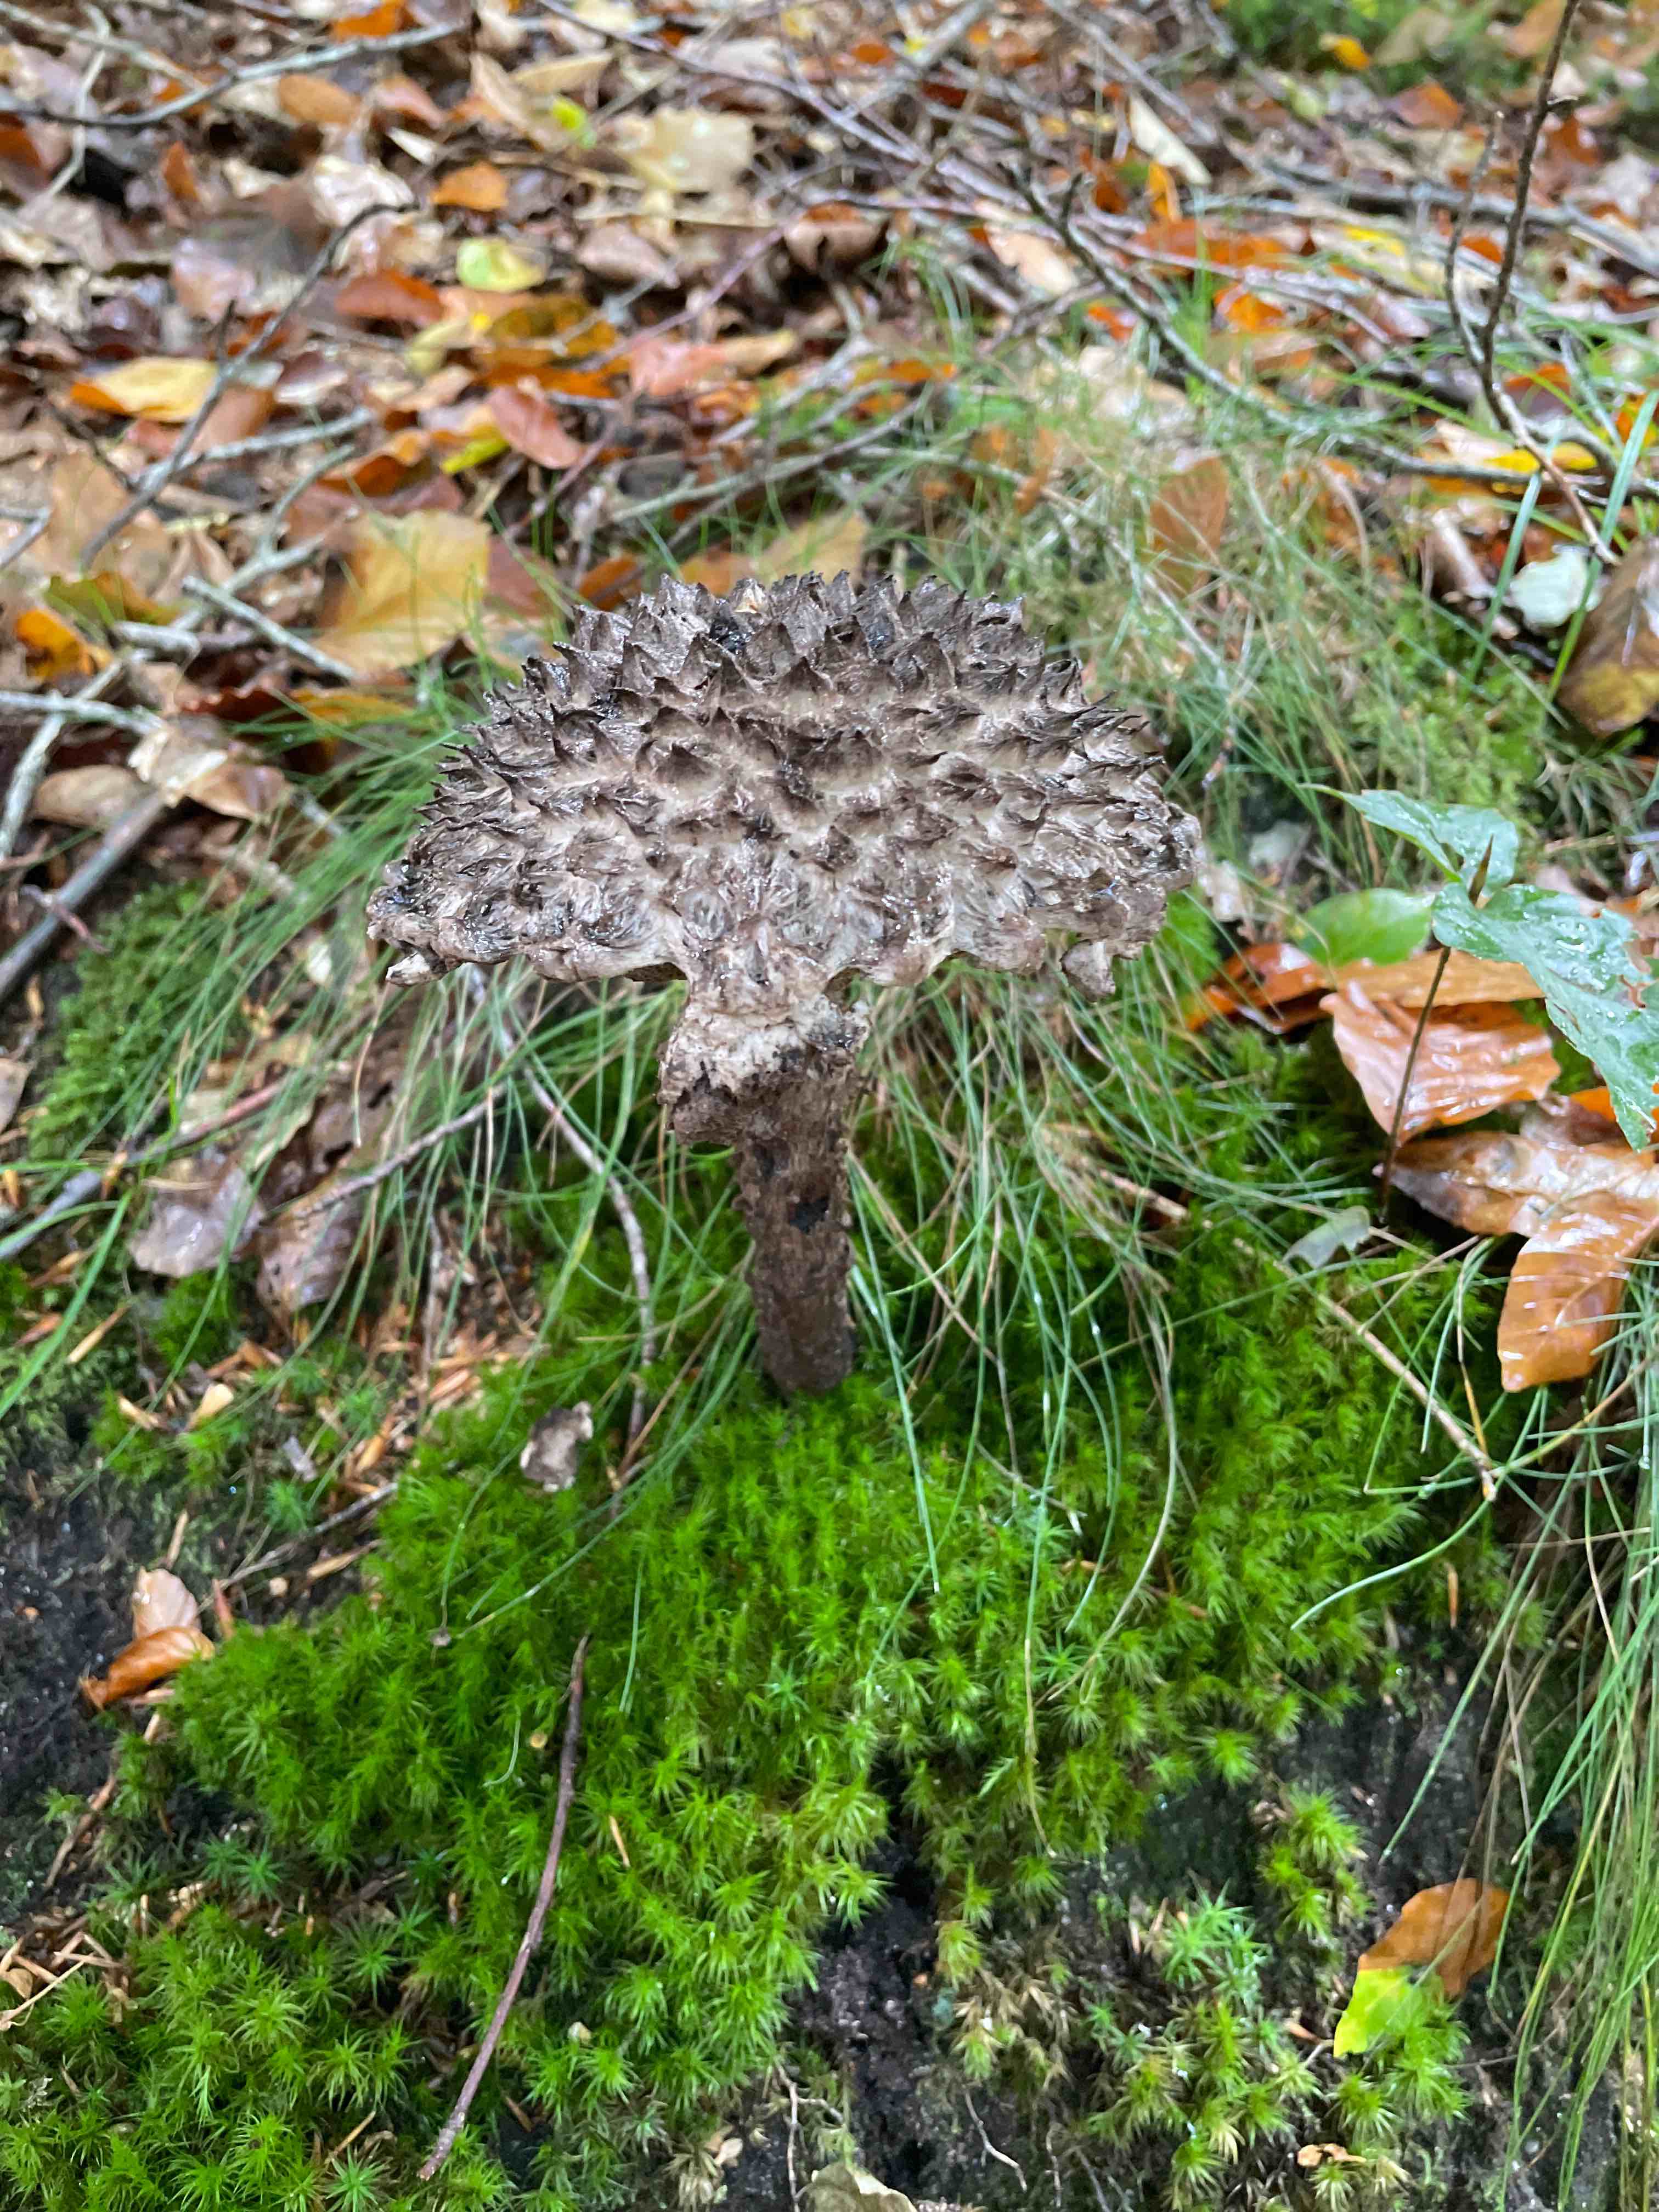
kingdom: Fungi
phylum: Basidiomycota
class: Agaricomycetes
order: Boletales
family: Boletaceae
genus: Strobilomyces
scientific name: Strobilomyces strobilaceus
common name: koglerørhat
